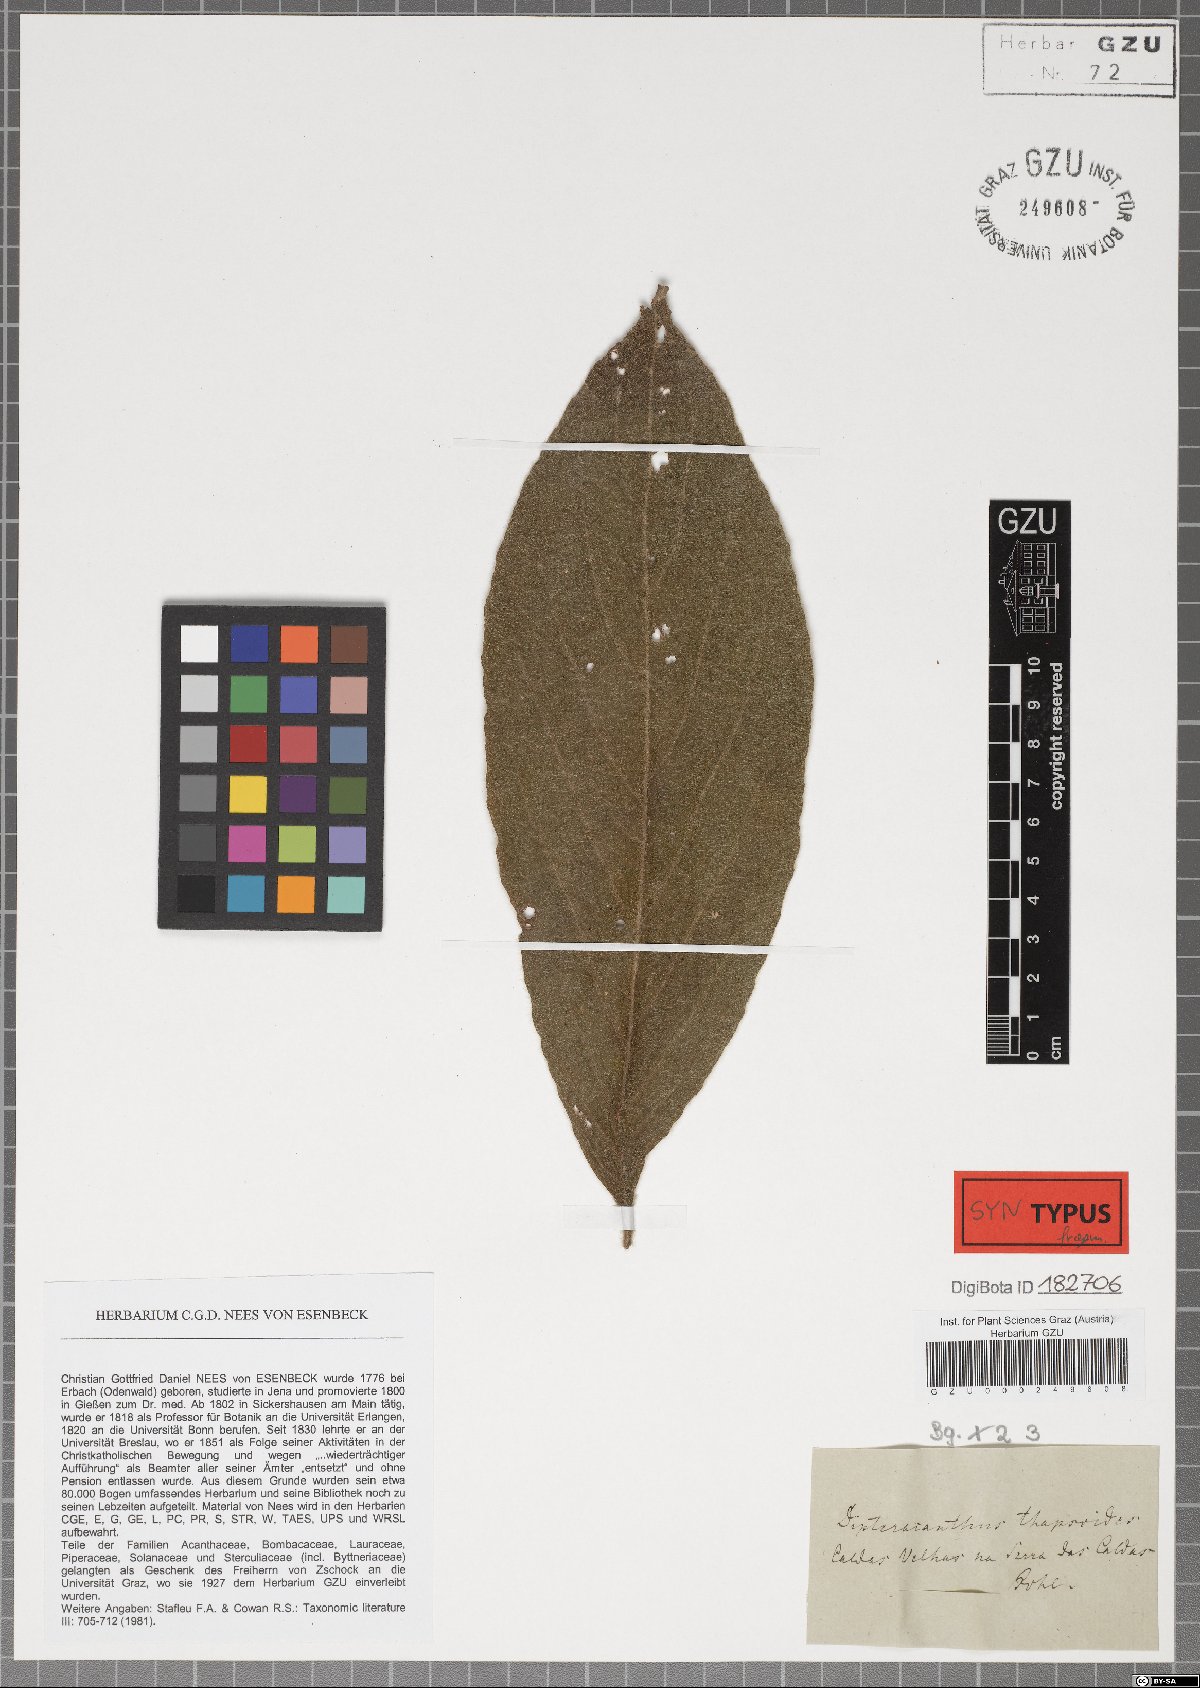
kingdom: Plantae
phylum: Tracheophyta
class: Magnoliopsida
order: Lamiales
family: Acanthaceae
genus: Ruellia
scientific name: Ruellia neesiana
